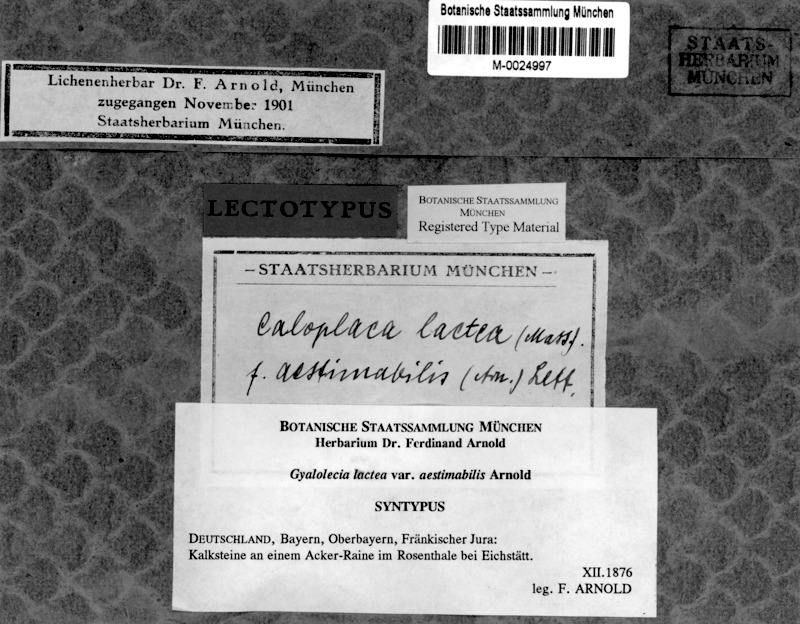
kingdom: Fungi
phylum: Ascomycota
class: Lecanoromycetes
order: Teloschistales
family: Teloschistaceae
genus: Xanthocarpia
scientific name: Xanthocarpia crenulatella
